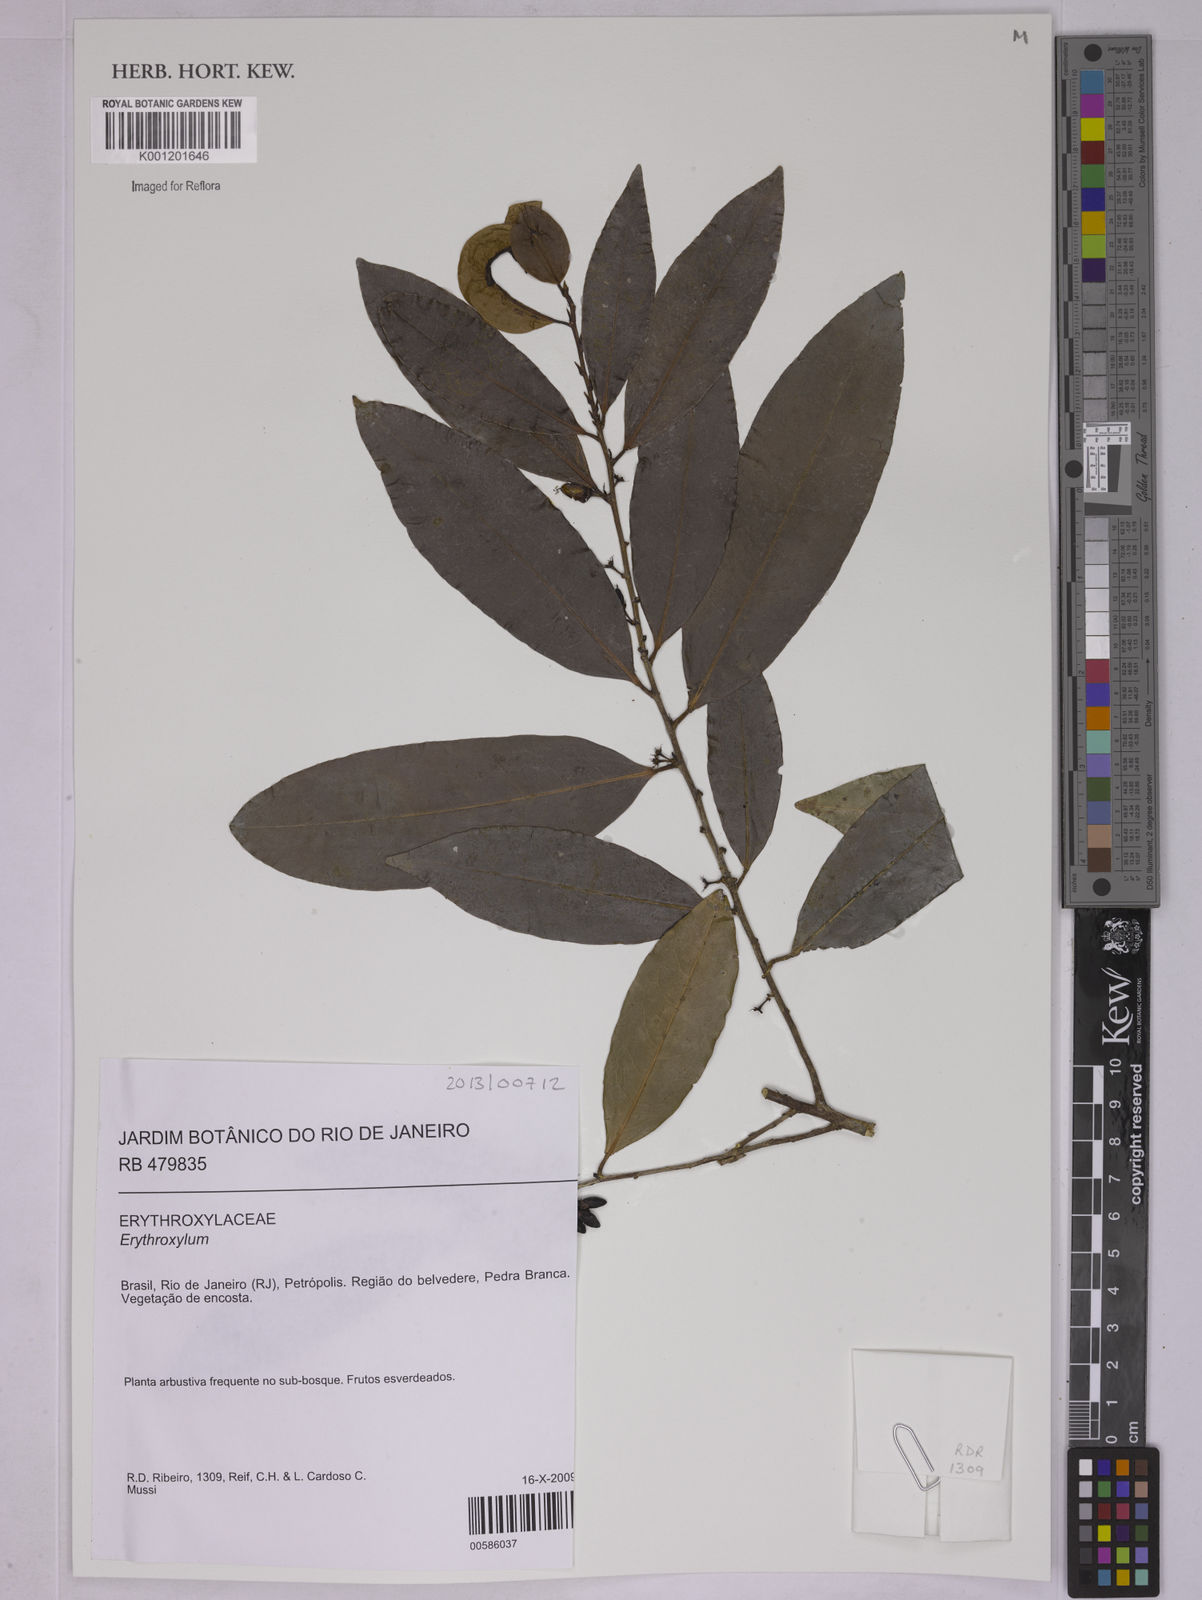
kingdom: Plantae
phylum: Tracheophyta
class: Magnoliopsida
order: Malpighiales
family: Erythroxylaceae
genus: Erythroxylum
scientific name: Erythroxylum
